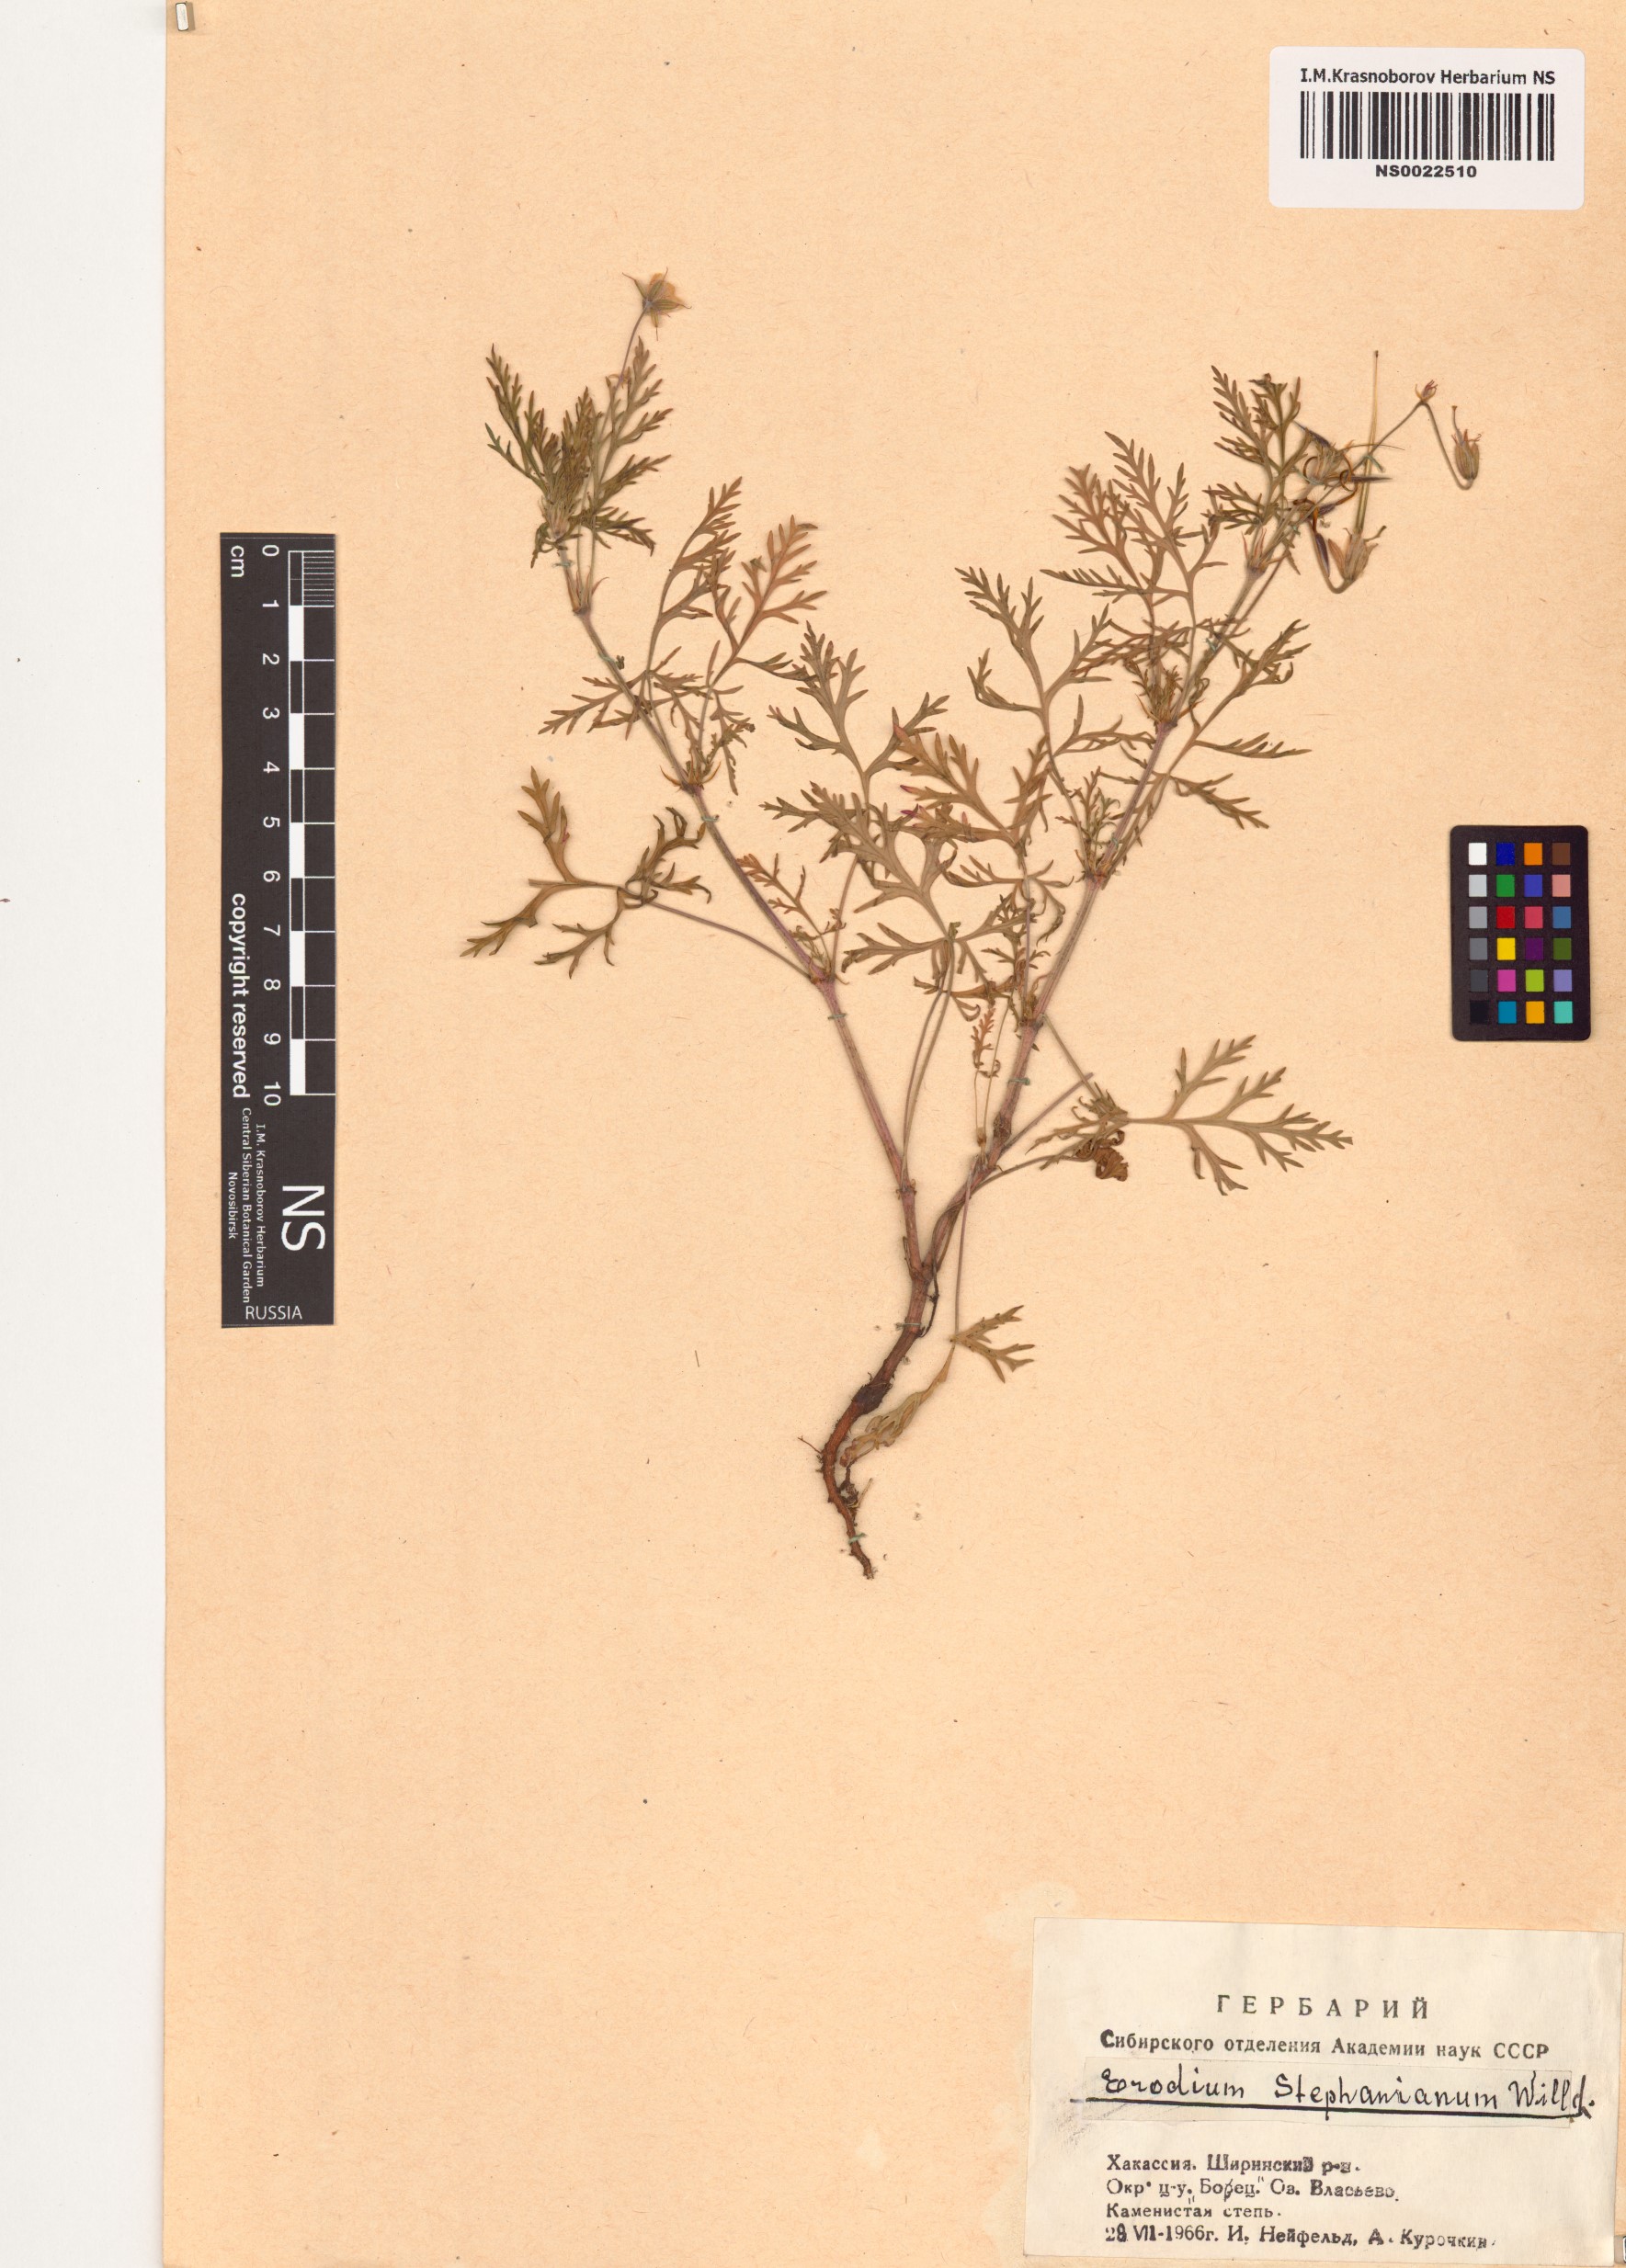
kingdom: Plantae
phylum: Tracheophyta
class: Magnoliopsida
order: Geraniales
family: Geraniaceae
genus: Erodium
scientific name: Erodium stephanianum
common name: Stephen's stork's bill
